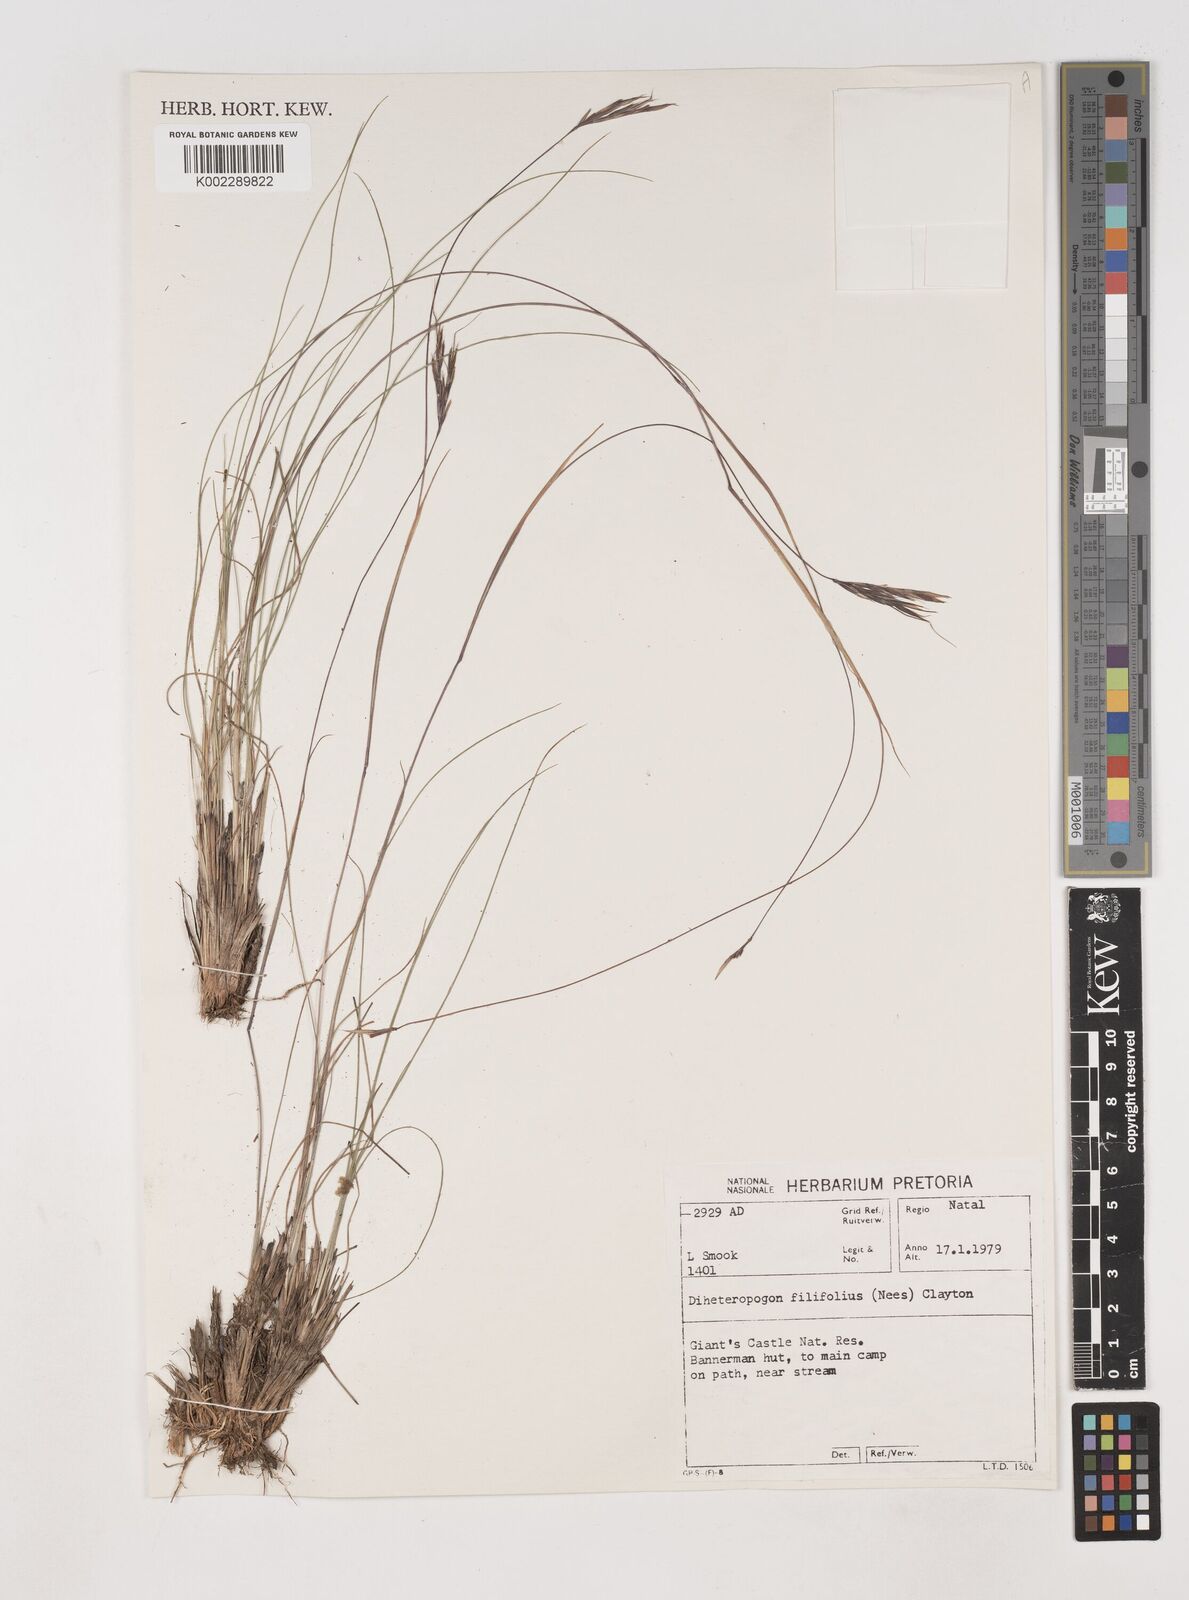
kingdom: Plantae
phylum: Tracheophyta
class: Liliopsida
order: Poales
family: Poaceae
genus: Diheteropogon
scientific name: Diheteropogon filifolius
